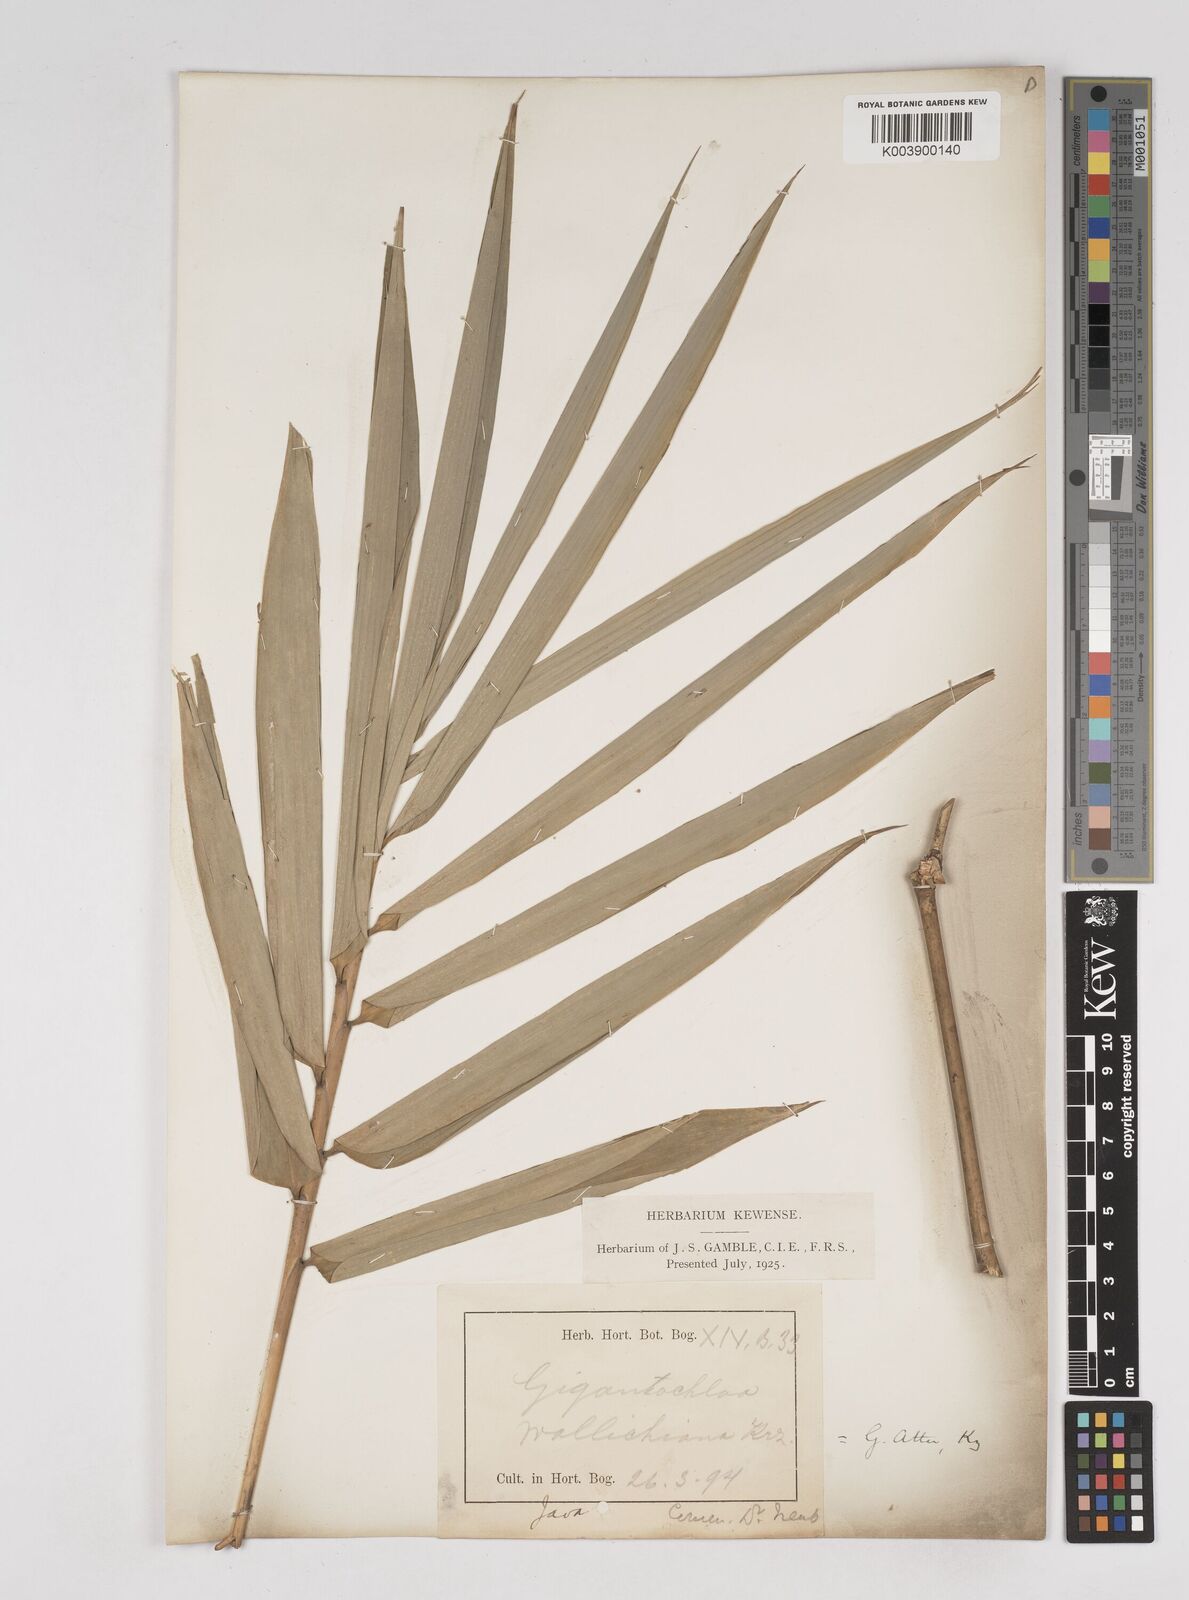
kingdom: Plantae
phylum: Tracheophyta
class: Liliopsida
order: Poales
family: Poaceae
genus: Gigantochloa
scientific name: Gigantochloa atter
